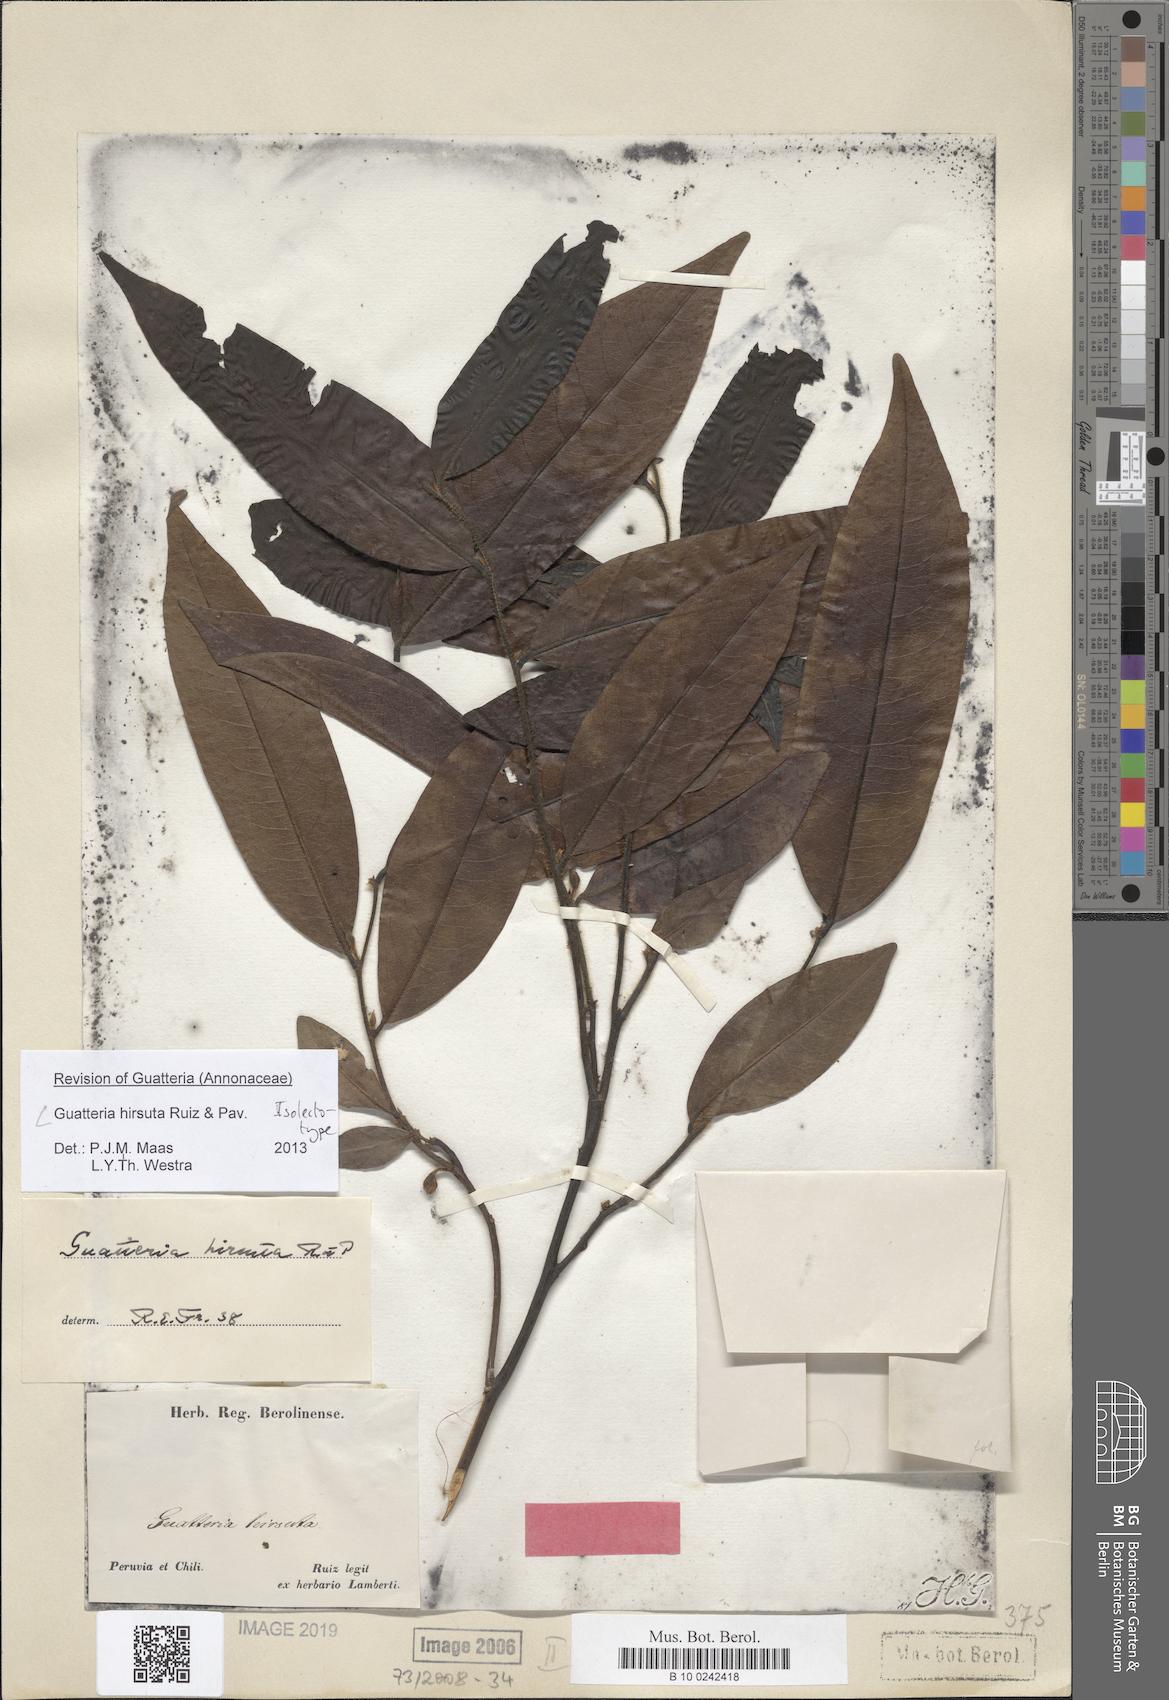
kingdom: Plantae
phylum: Tracheophyta
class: Magnoliopsida
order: Magnoliales
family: Annonaceae
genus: Guatteria
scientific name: Guatteria hirsuta
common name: Laurel
